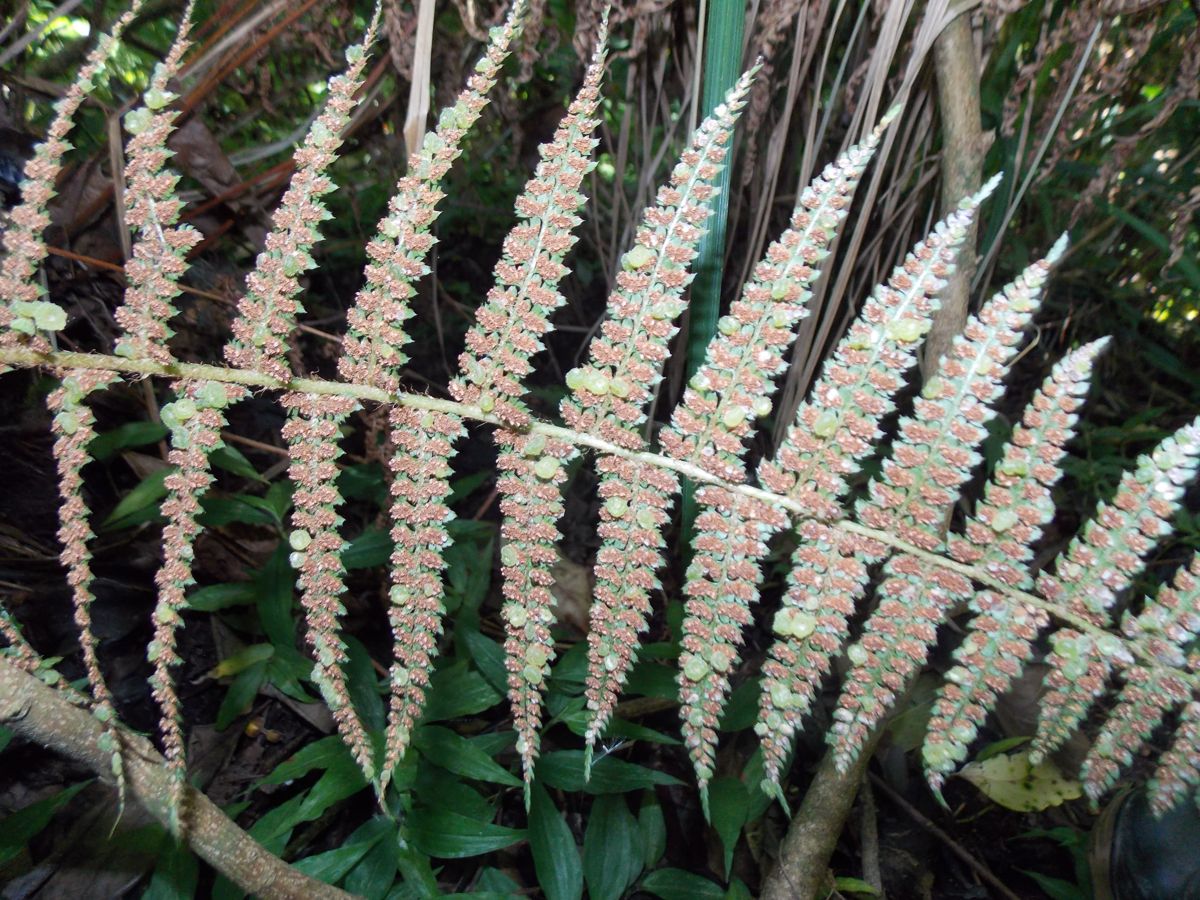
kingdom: Plantae
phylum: Tracheophyta
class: Polypodiopsida
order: Polypodiales
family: Dryopteridaceae
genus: Polystichum
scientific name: Polystichum hartwegii
